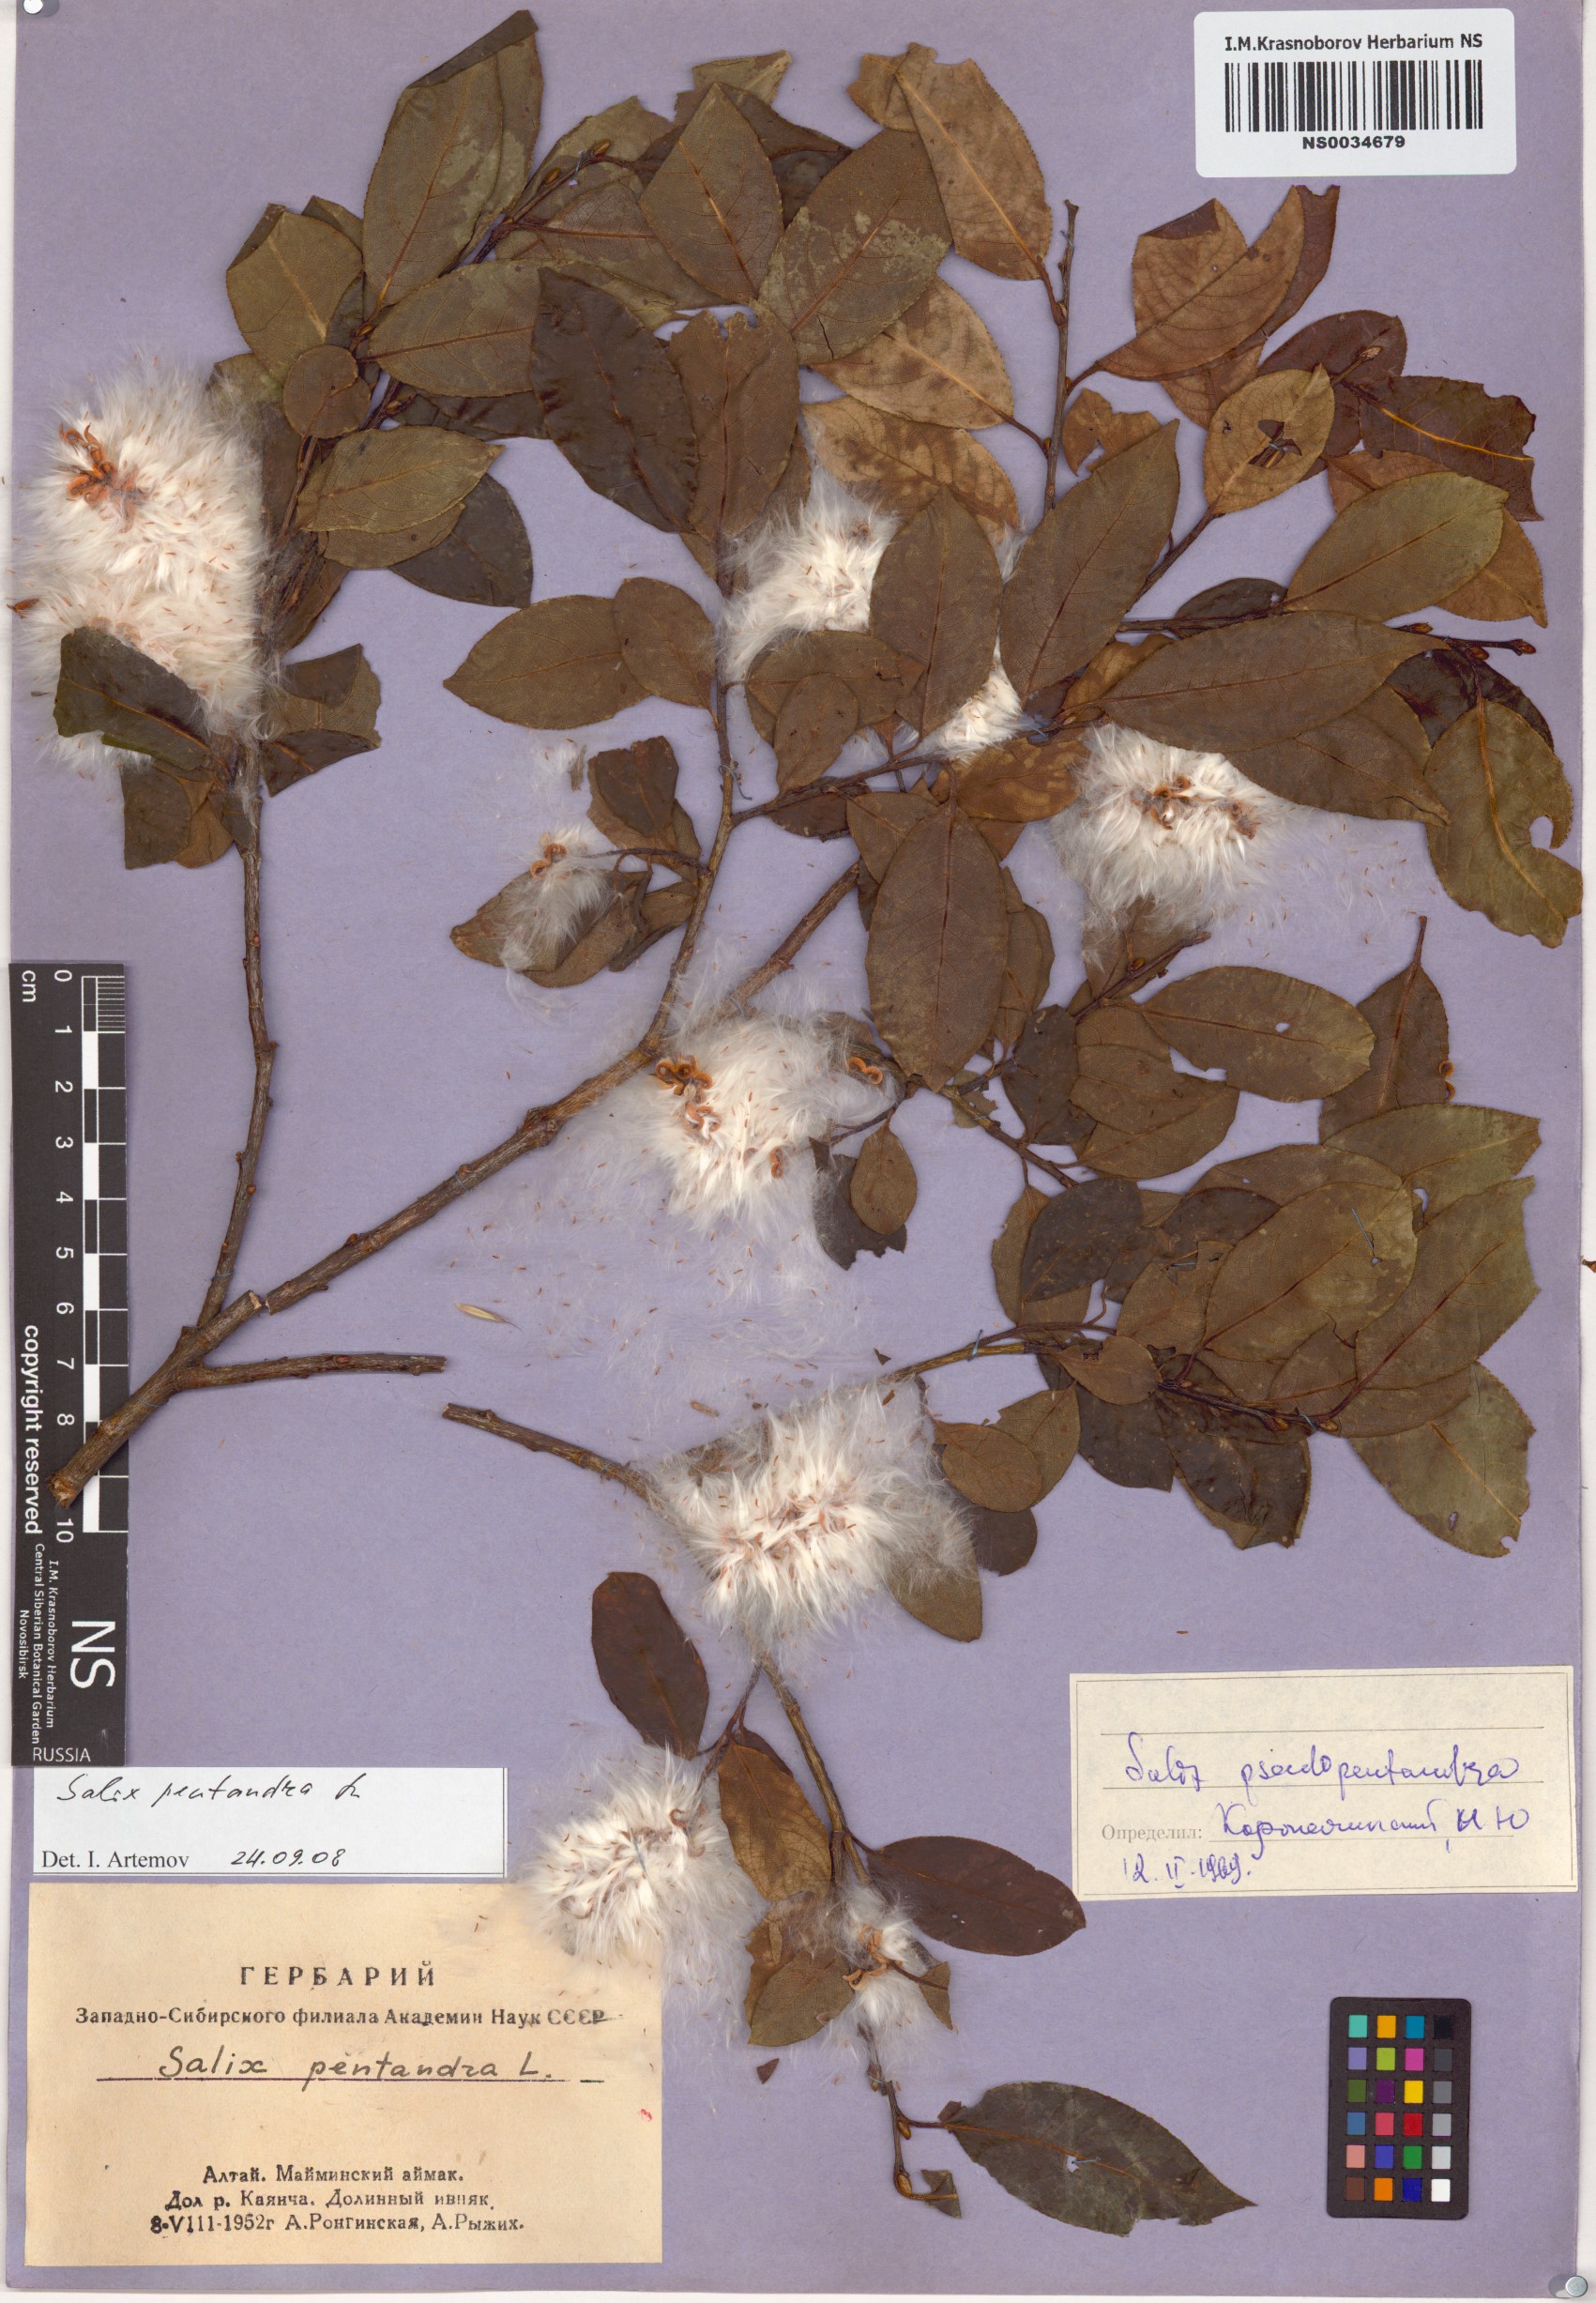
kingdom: Plantae
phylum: Tracheophyta
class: Magnoliopsida
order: Malpighiales
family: Salicaceae
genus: Salix
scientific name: Salix pentandra
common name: Bay willow
